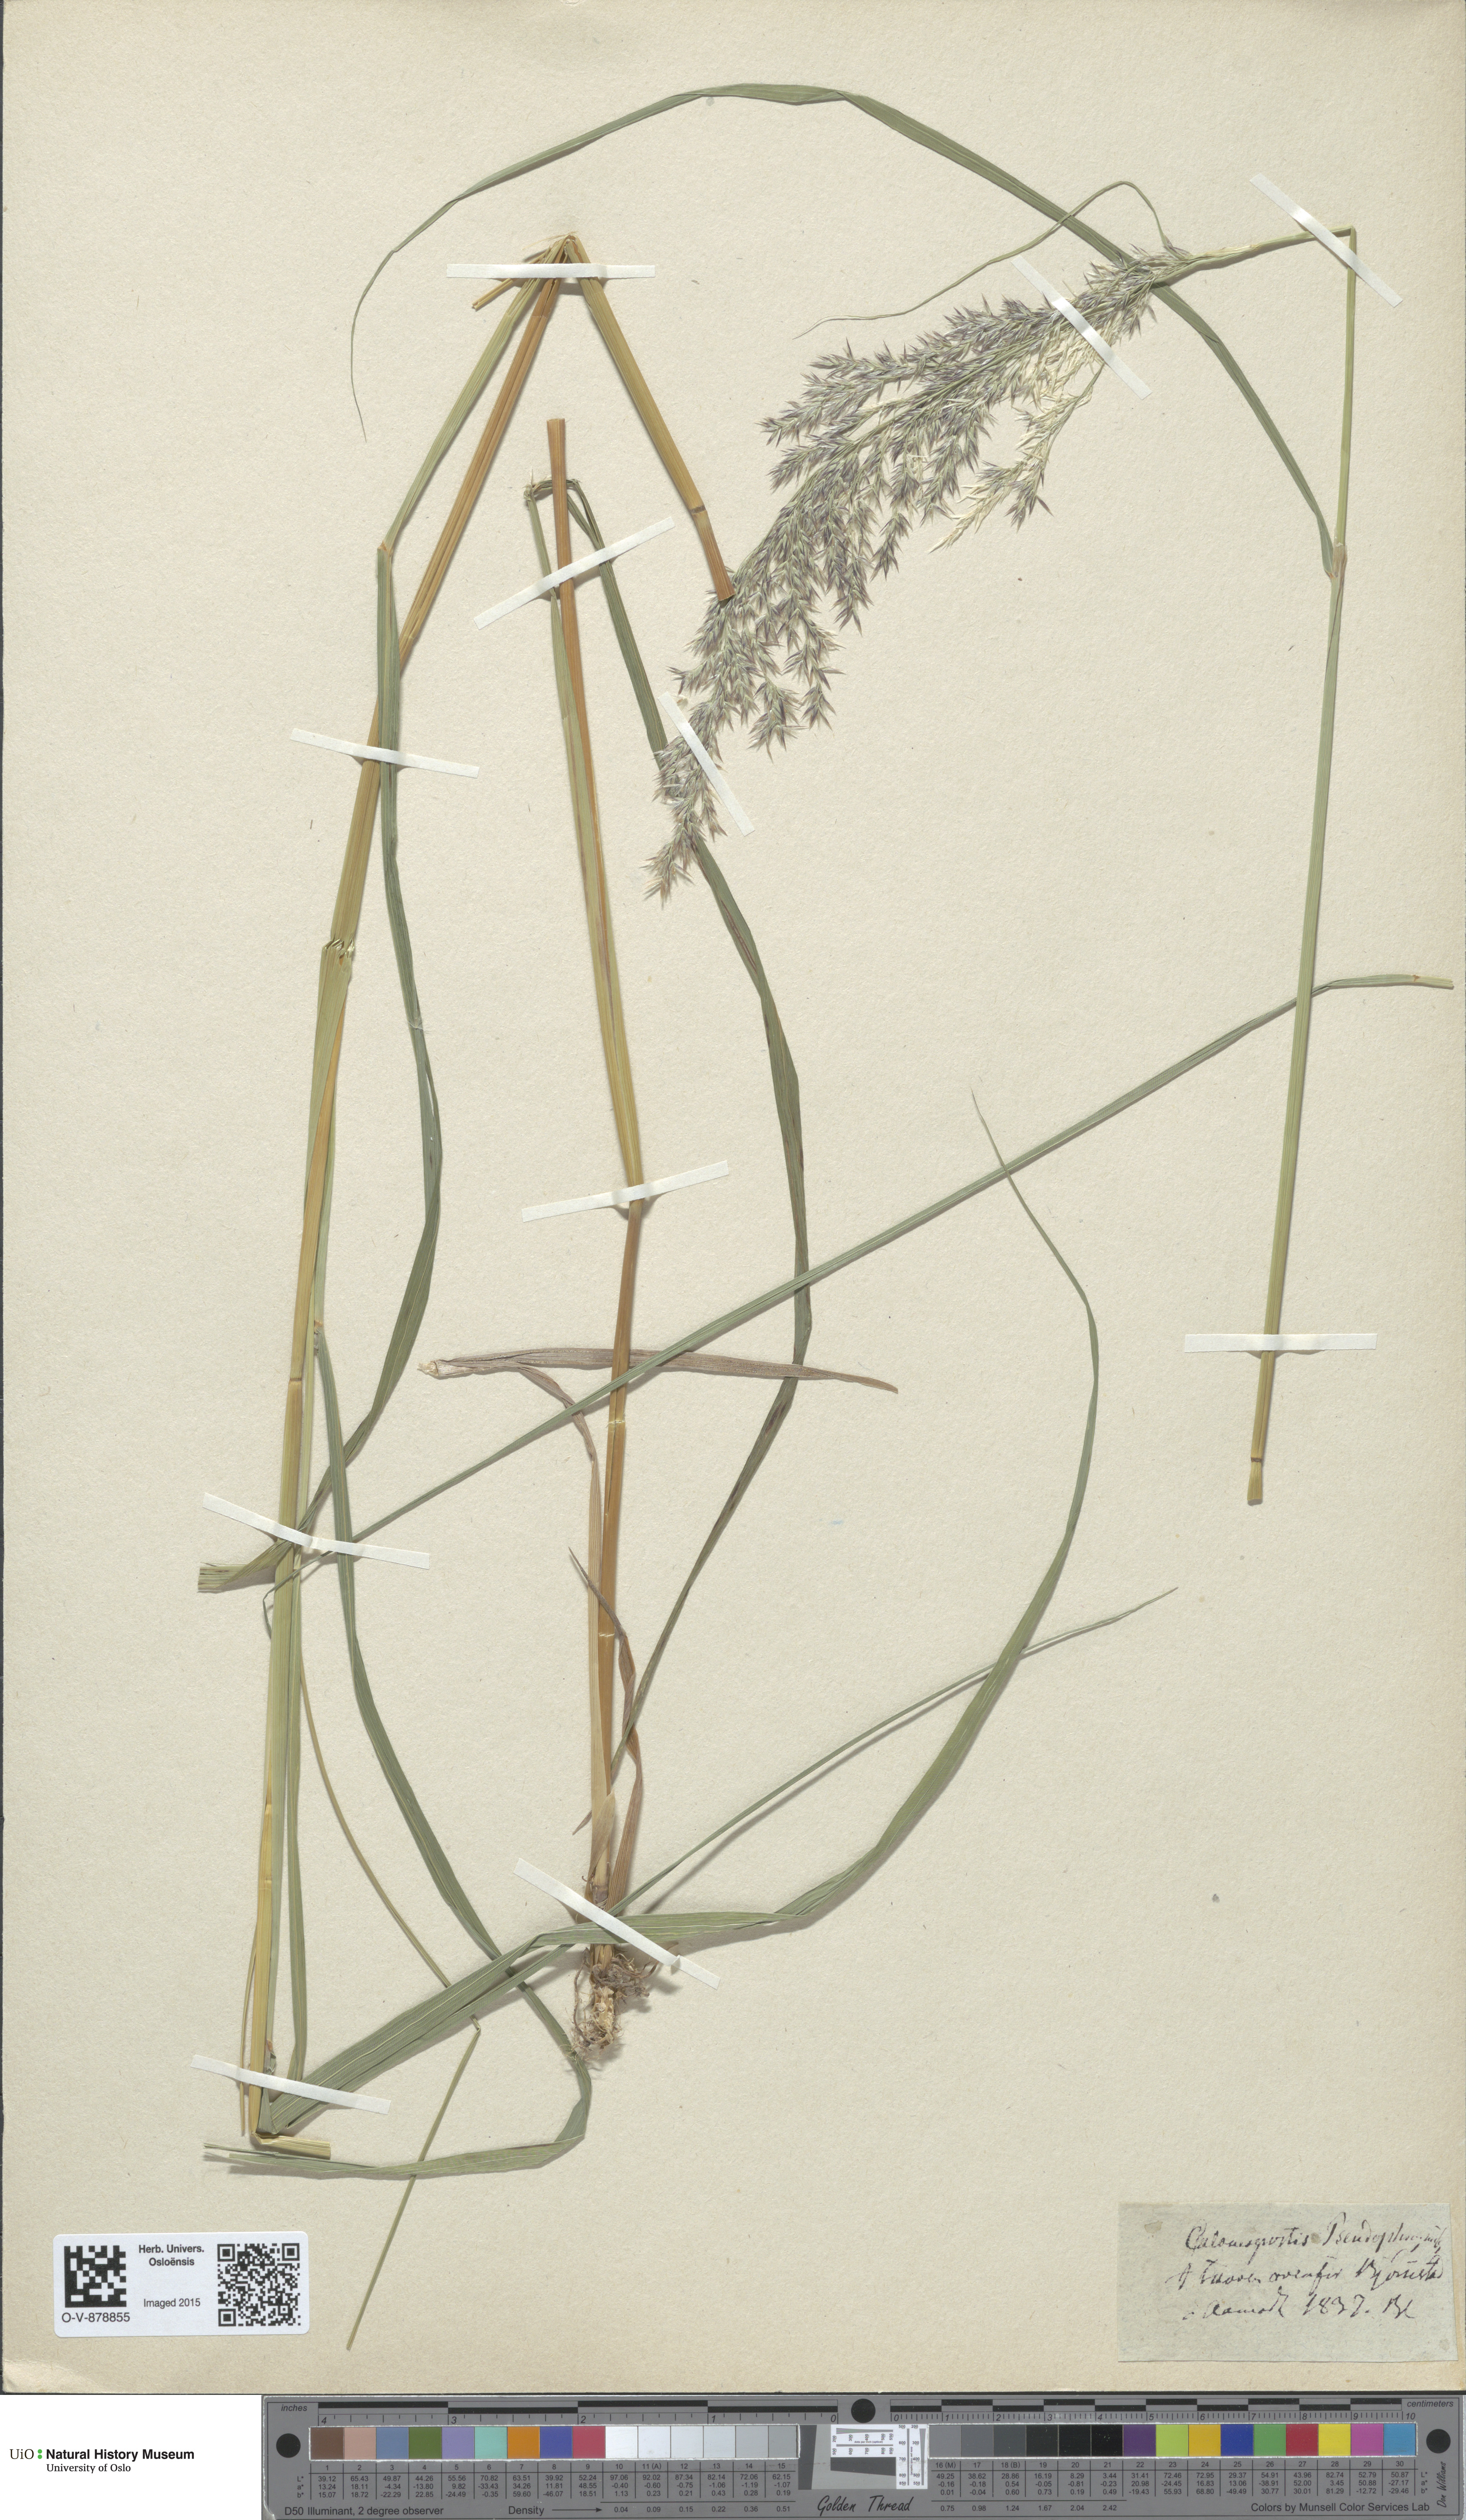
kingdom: Plantae
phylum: Tracheophyta
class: Liliopsida
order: Poales
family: Poaceae
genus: Calamagrostis
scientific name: Calamagrostis purpurea
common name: Scandinavian small-reed
